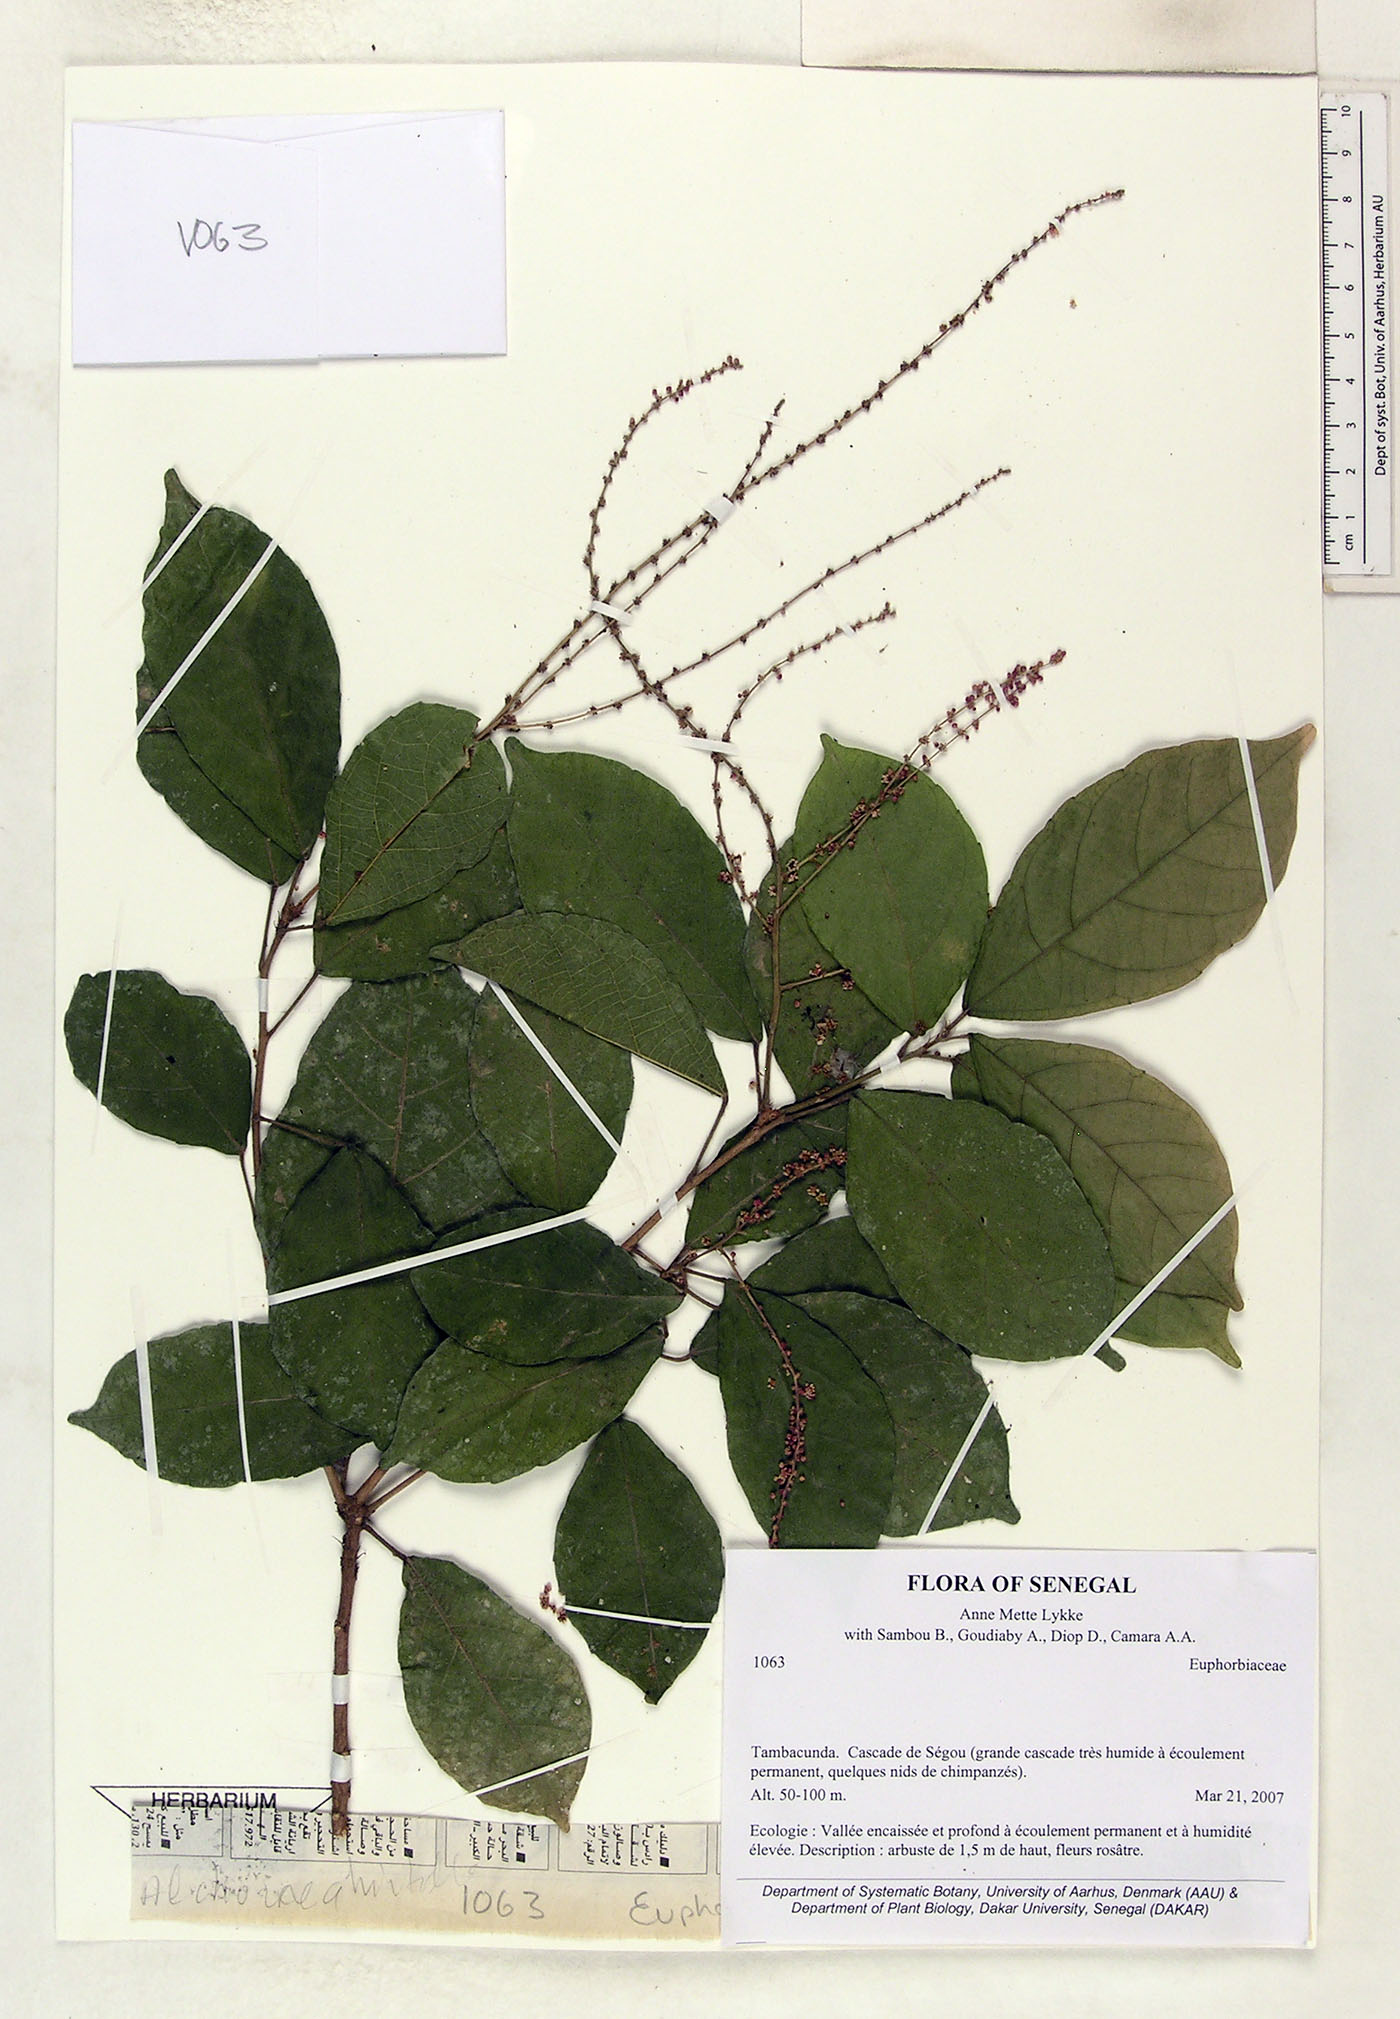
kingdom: Plantae
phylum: Tracheophyta
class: Magnoliopsida
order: Malpighiales
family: Euphorbiaceae
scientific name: Euphorbiaceae
